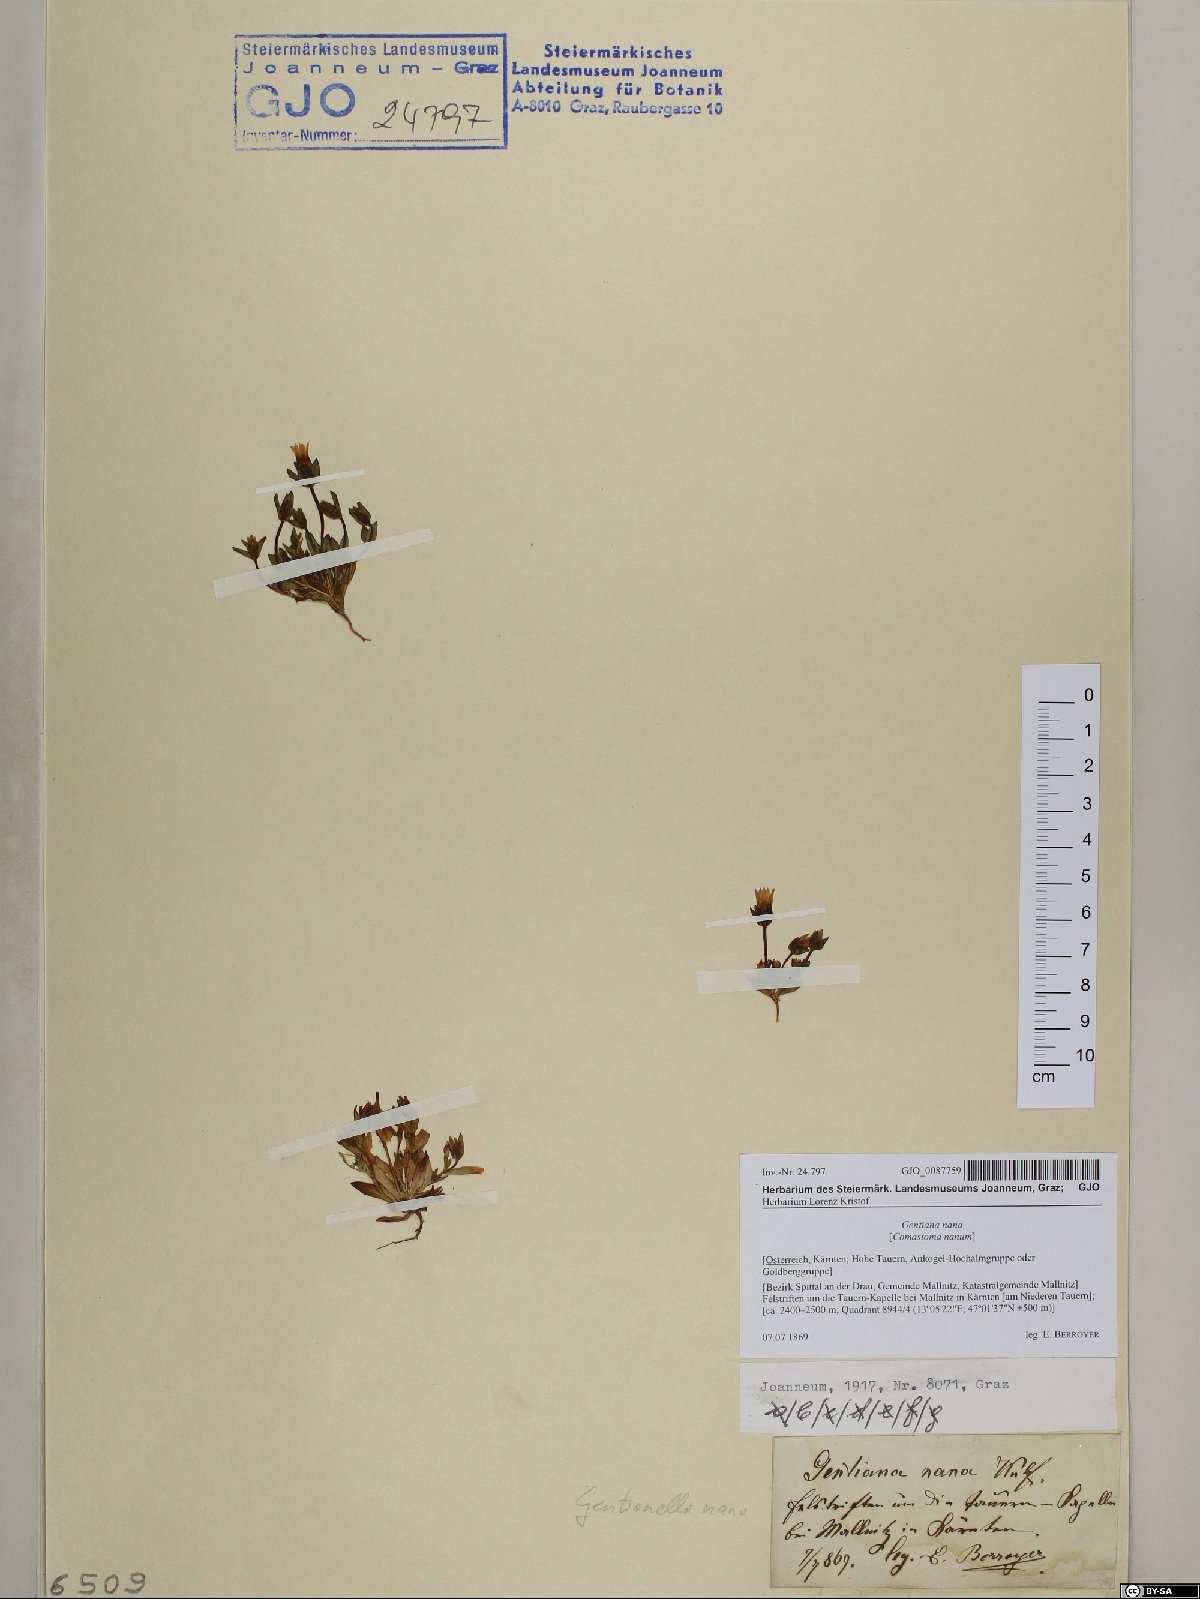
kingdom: Plantae
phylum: Tracheophyta
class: Magnoliopsida
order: Gentianales
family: Gentianaceae
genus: Comastoma
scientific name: Comastoma nanum
